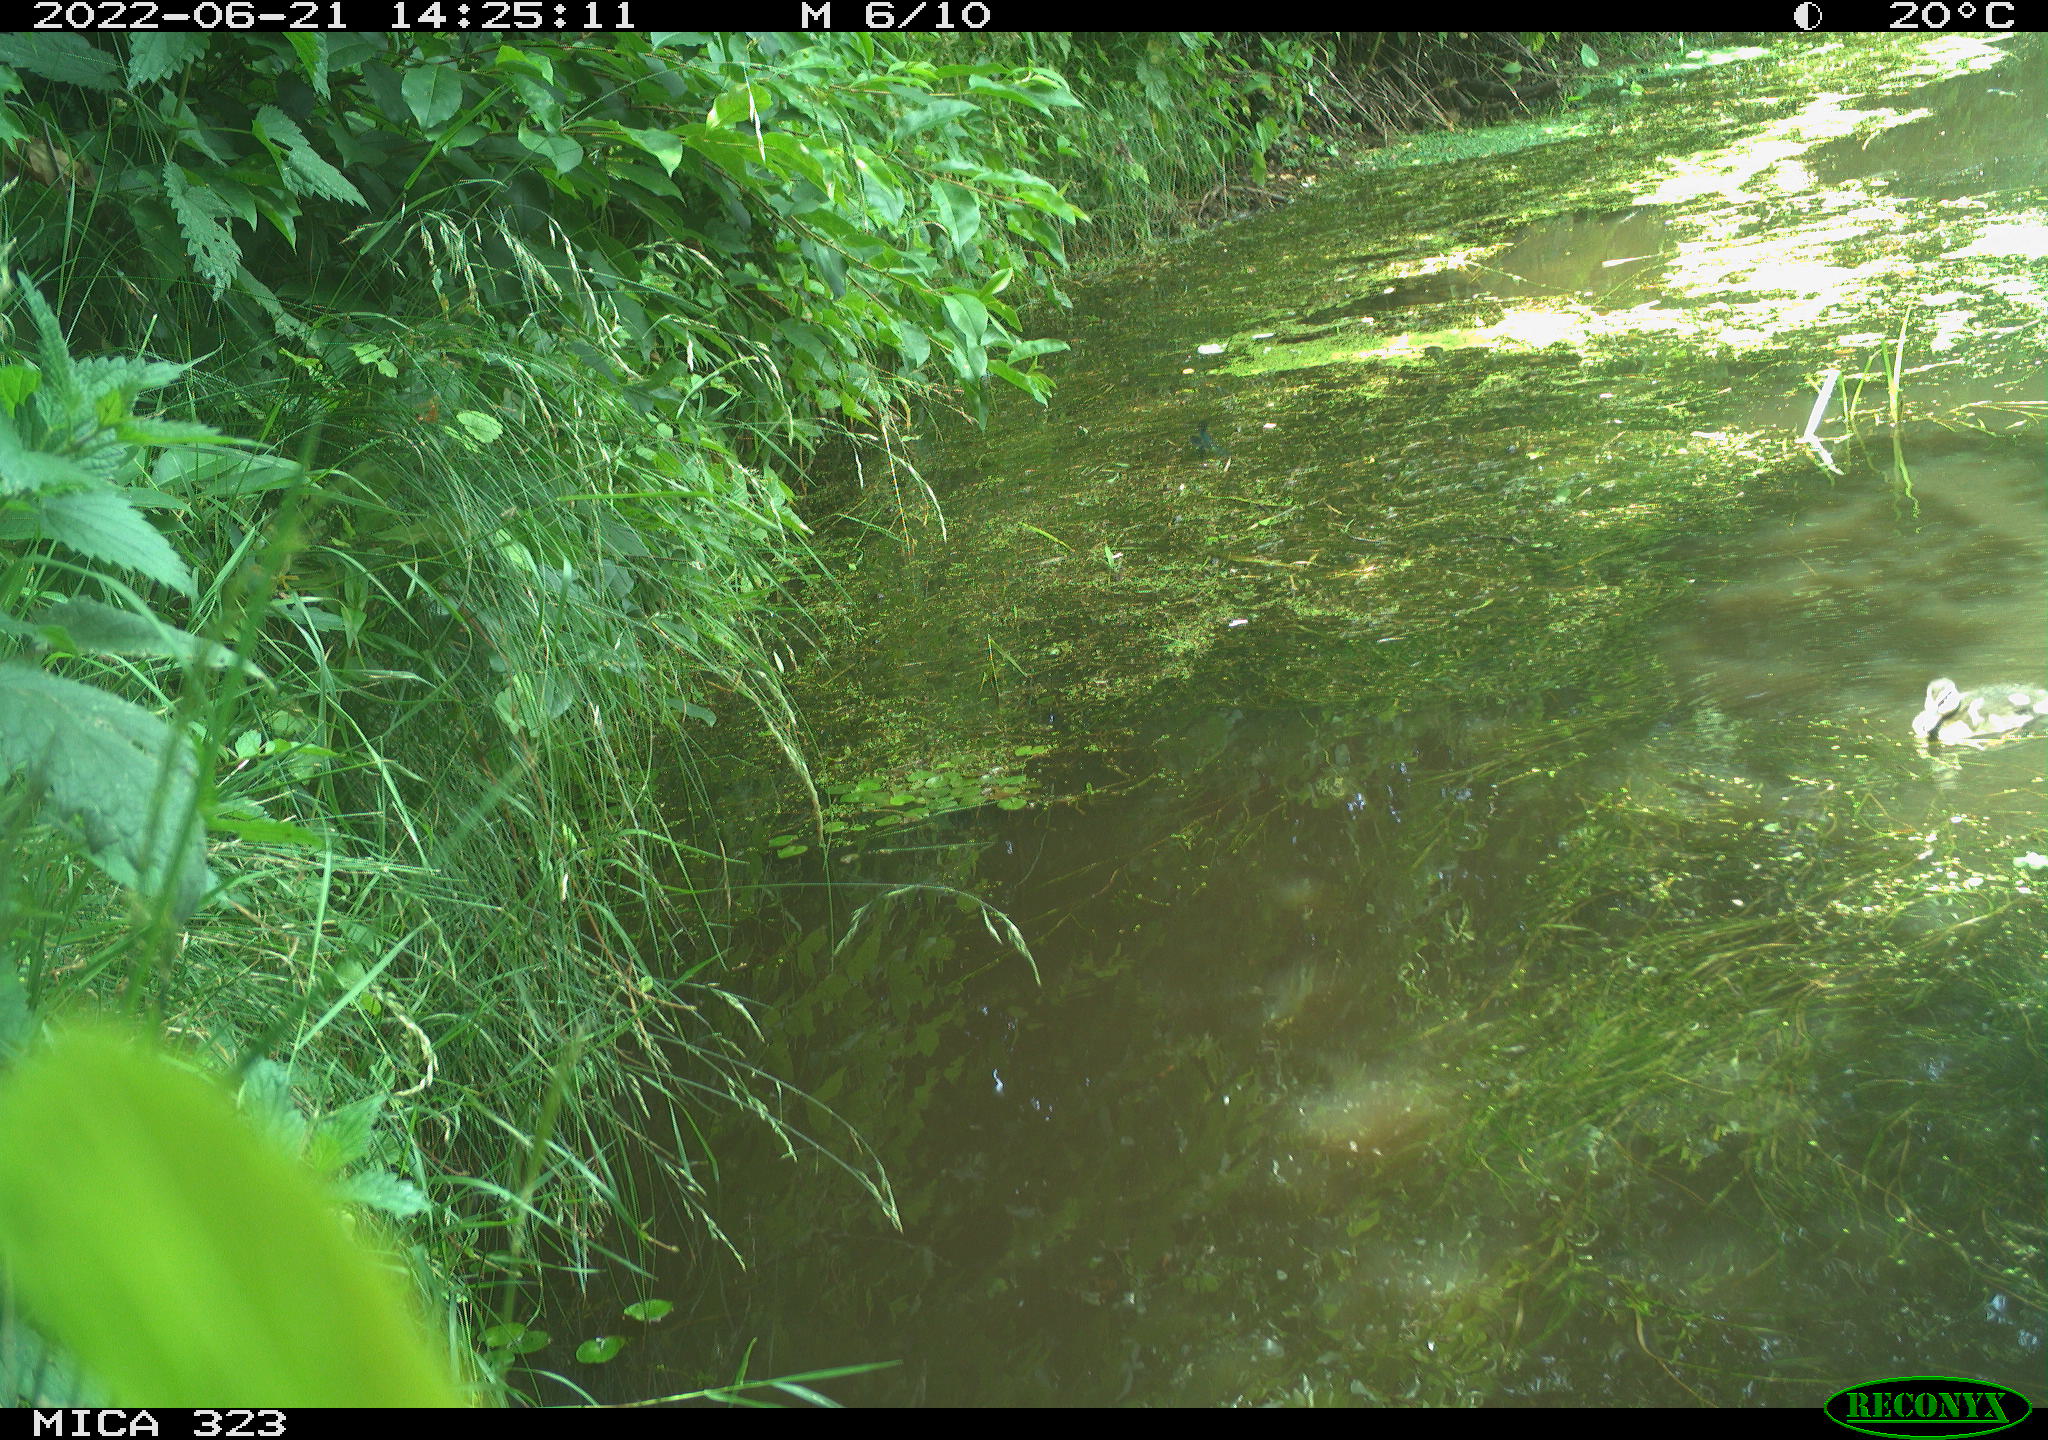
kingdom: Animalia
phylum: Chordata
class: Aves
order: Anseriformes
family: Anatidae
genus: Anas
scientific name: Anas platyrhynchos
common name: Mallard
